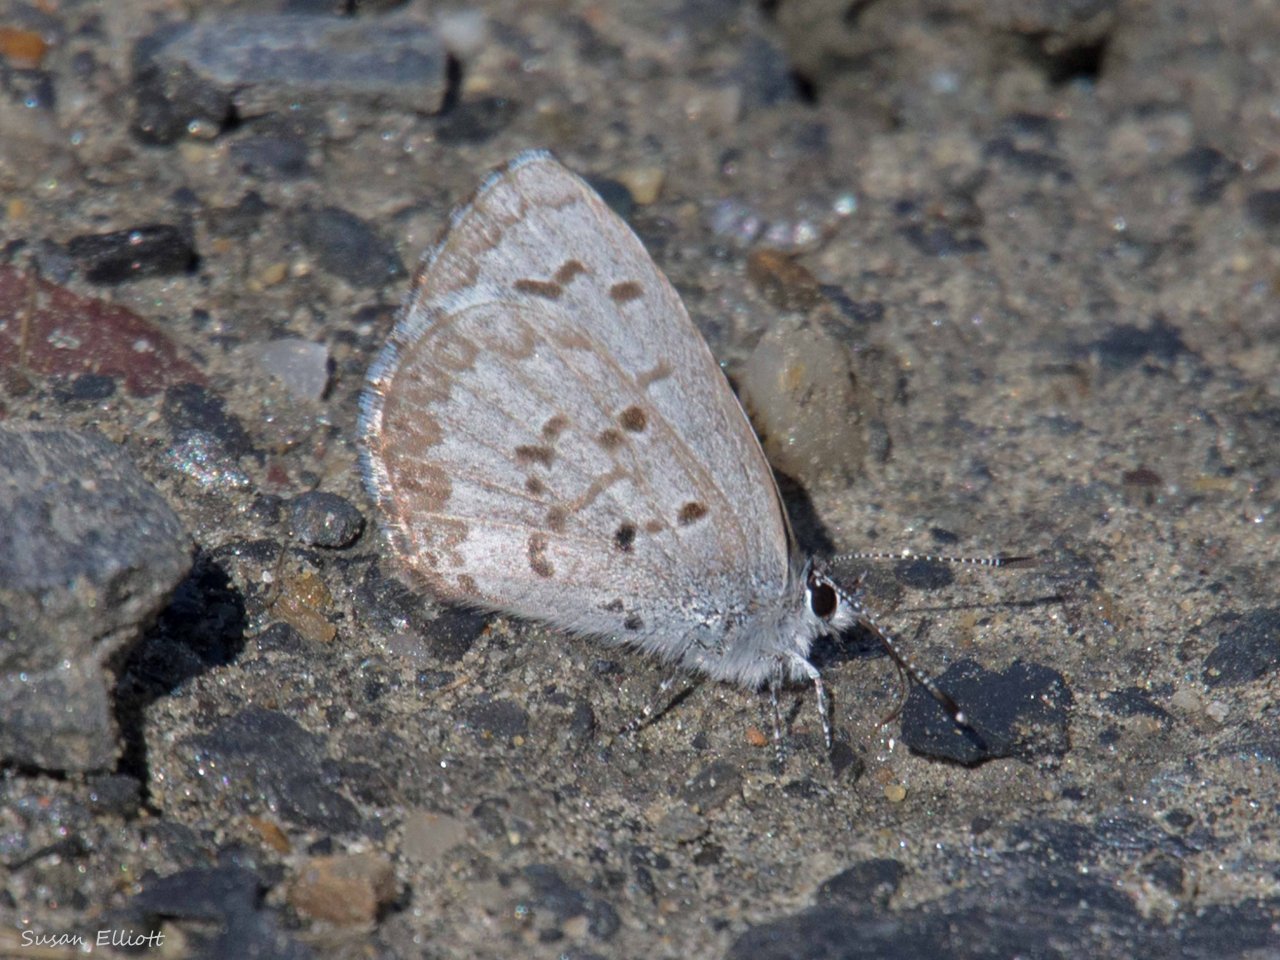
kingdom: Animalia
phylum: Arthropoda
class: Insecta
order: Lepidoptera
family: Lycaenidae
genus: Celastrina
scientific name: Celastrina lucia
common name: Northern Spring Azure
